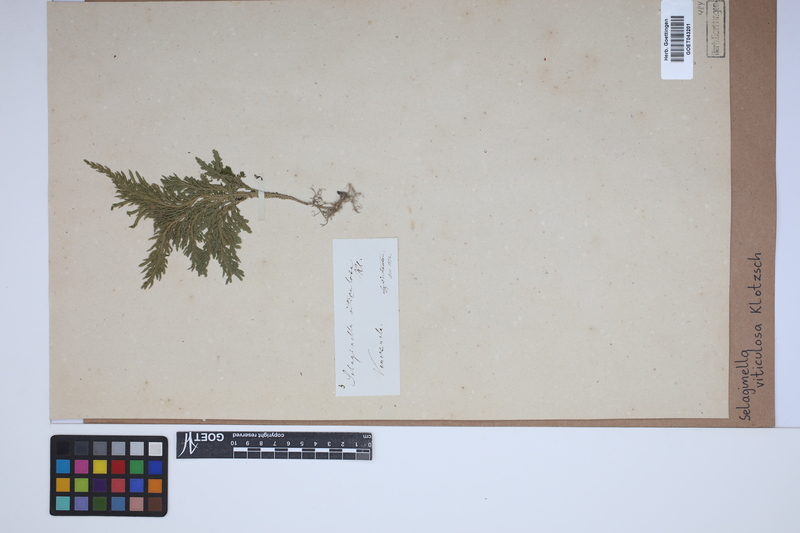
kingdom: Plantae
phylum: Tracheophyta
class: Lycopodiopsida
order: Selaginellales
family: Selaginellaceae
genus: Selaginella
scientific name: Selaginella viticulosa
